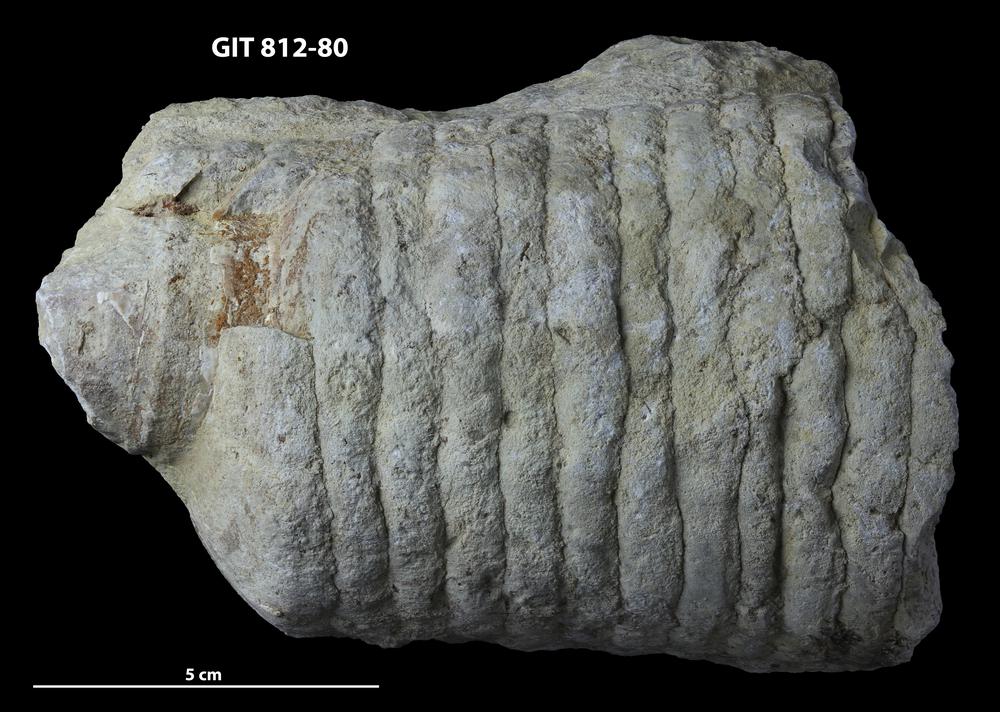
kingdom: Animalia
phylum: Mollusca
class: Cephalopoda
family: Endoceratidae
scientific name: Endoceratidae
